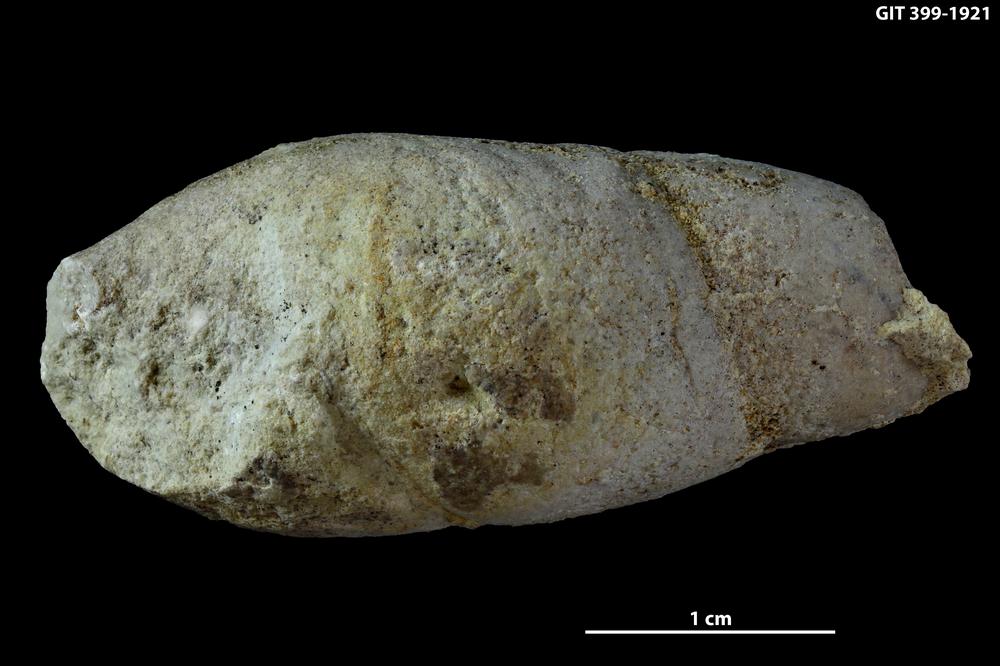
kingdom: Animalia
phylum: Mollusca
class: Gastropoda
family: Subulitidae
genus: Subulites
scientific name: Subulites amphora
